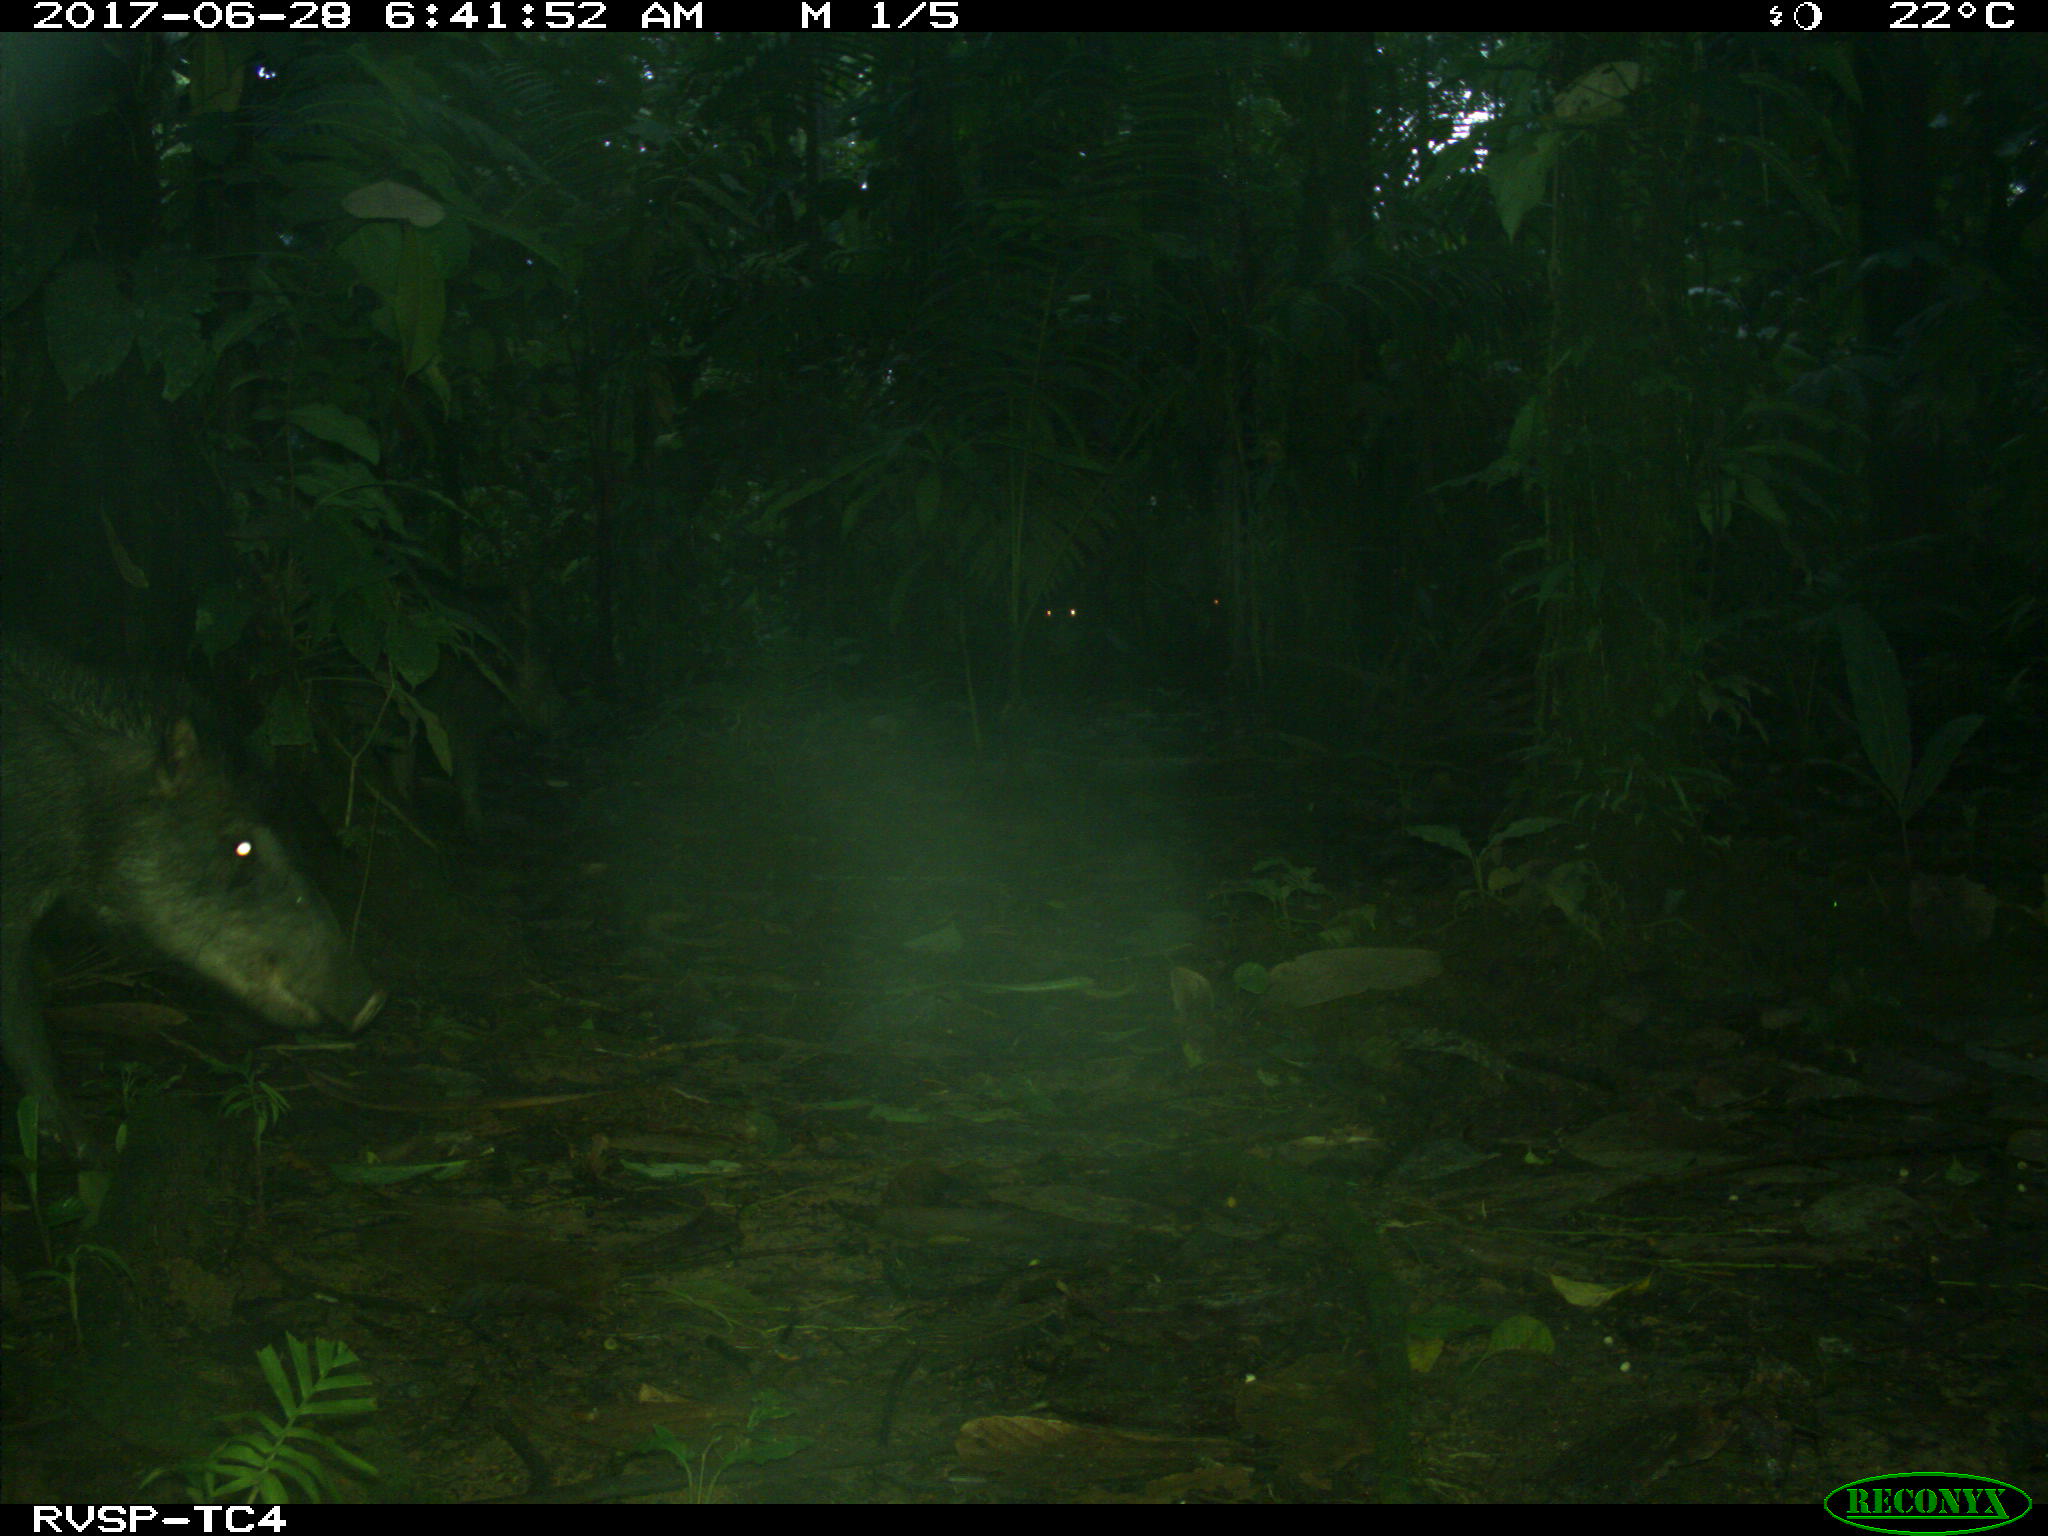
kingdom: Animalia
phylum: Chordata
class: Mammalia
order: Artiodactyla
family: Tayassuidae
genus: Tayassu
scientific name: Tayassu pecari
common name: White-lipped peccary
